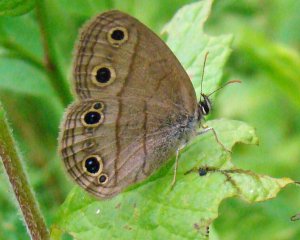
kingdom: Animalia
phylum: Arthropoda
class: Insecta
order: Lepidoptera
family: Nymphalidae
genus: Euptychia
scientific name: Euptychia cymela
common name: Little Wood Satyr
